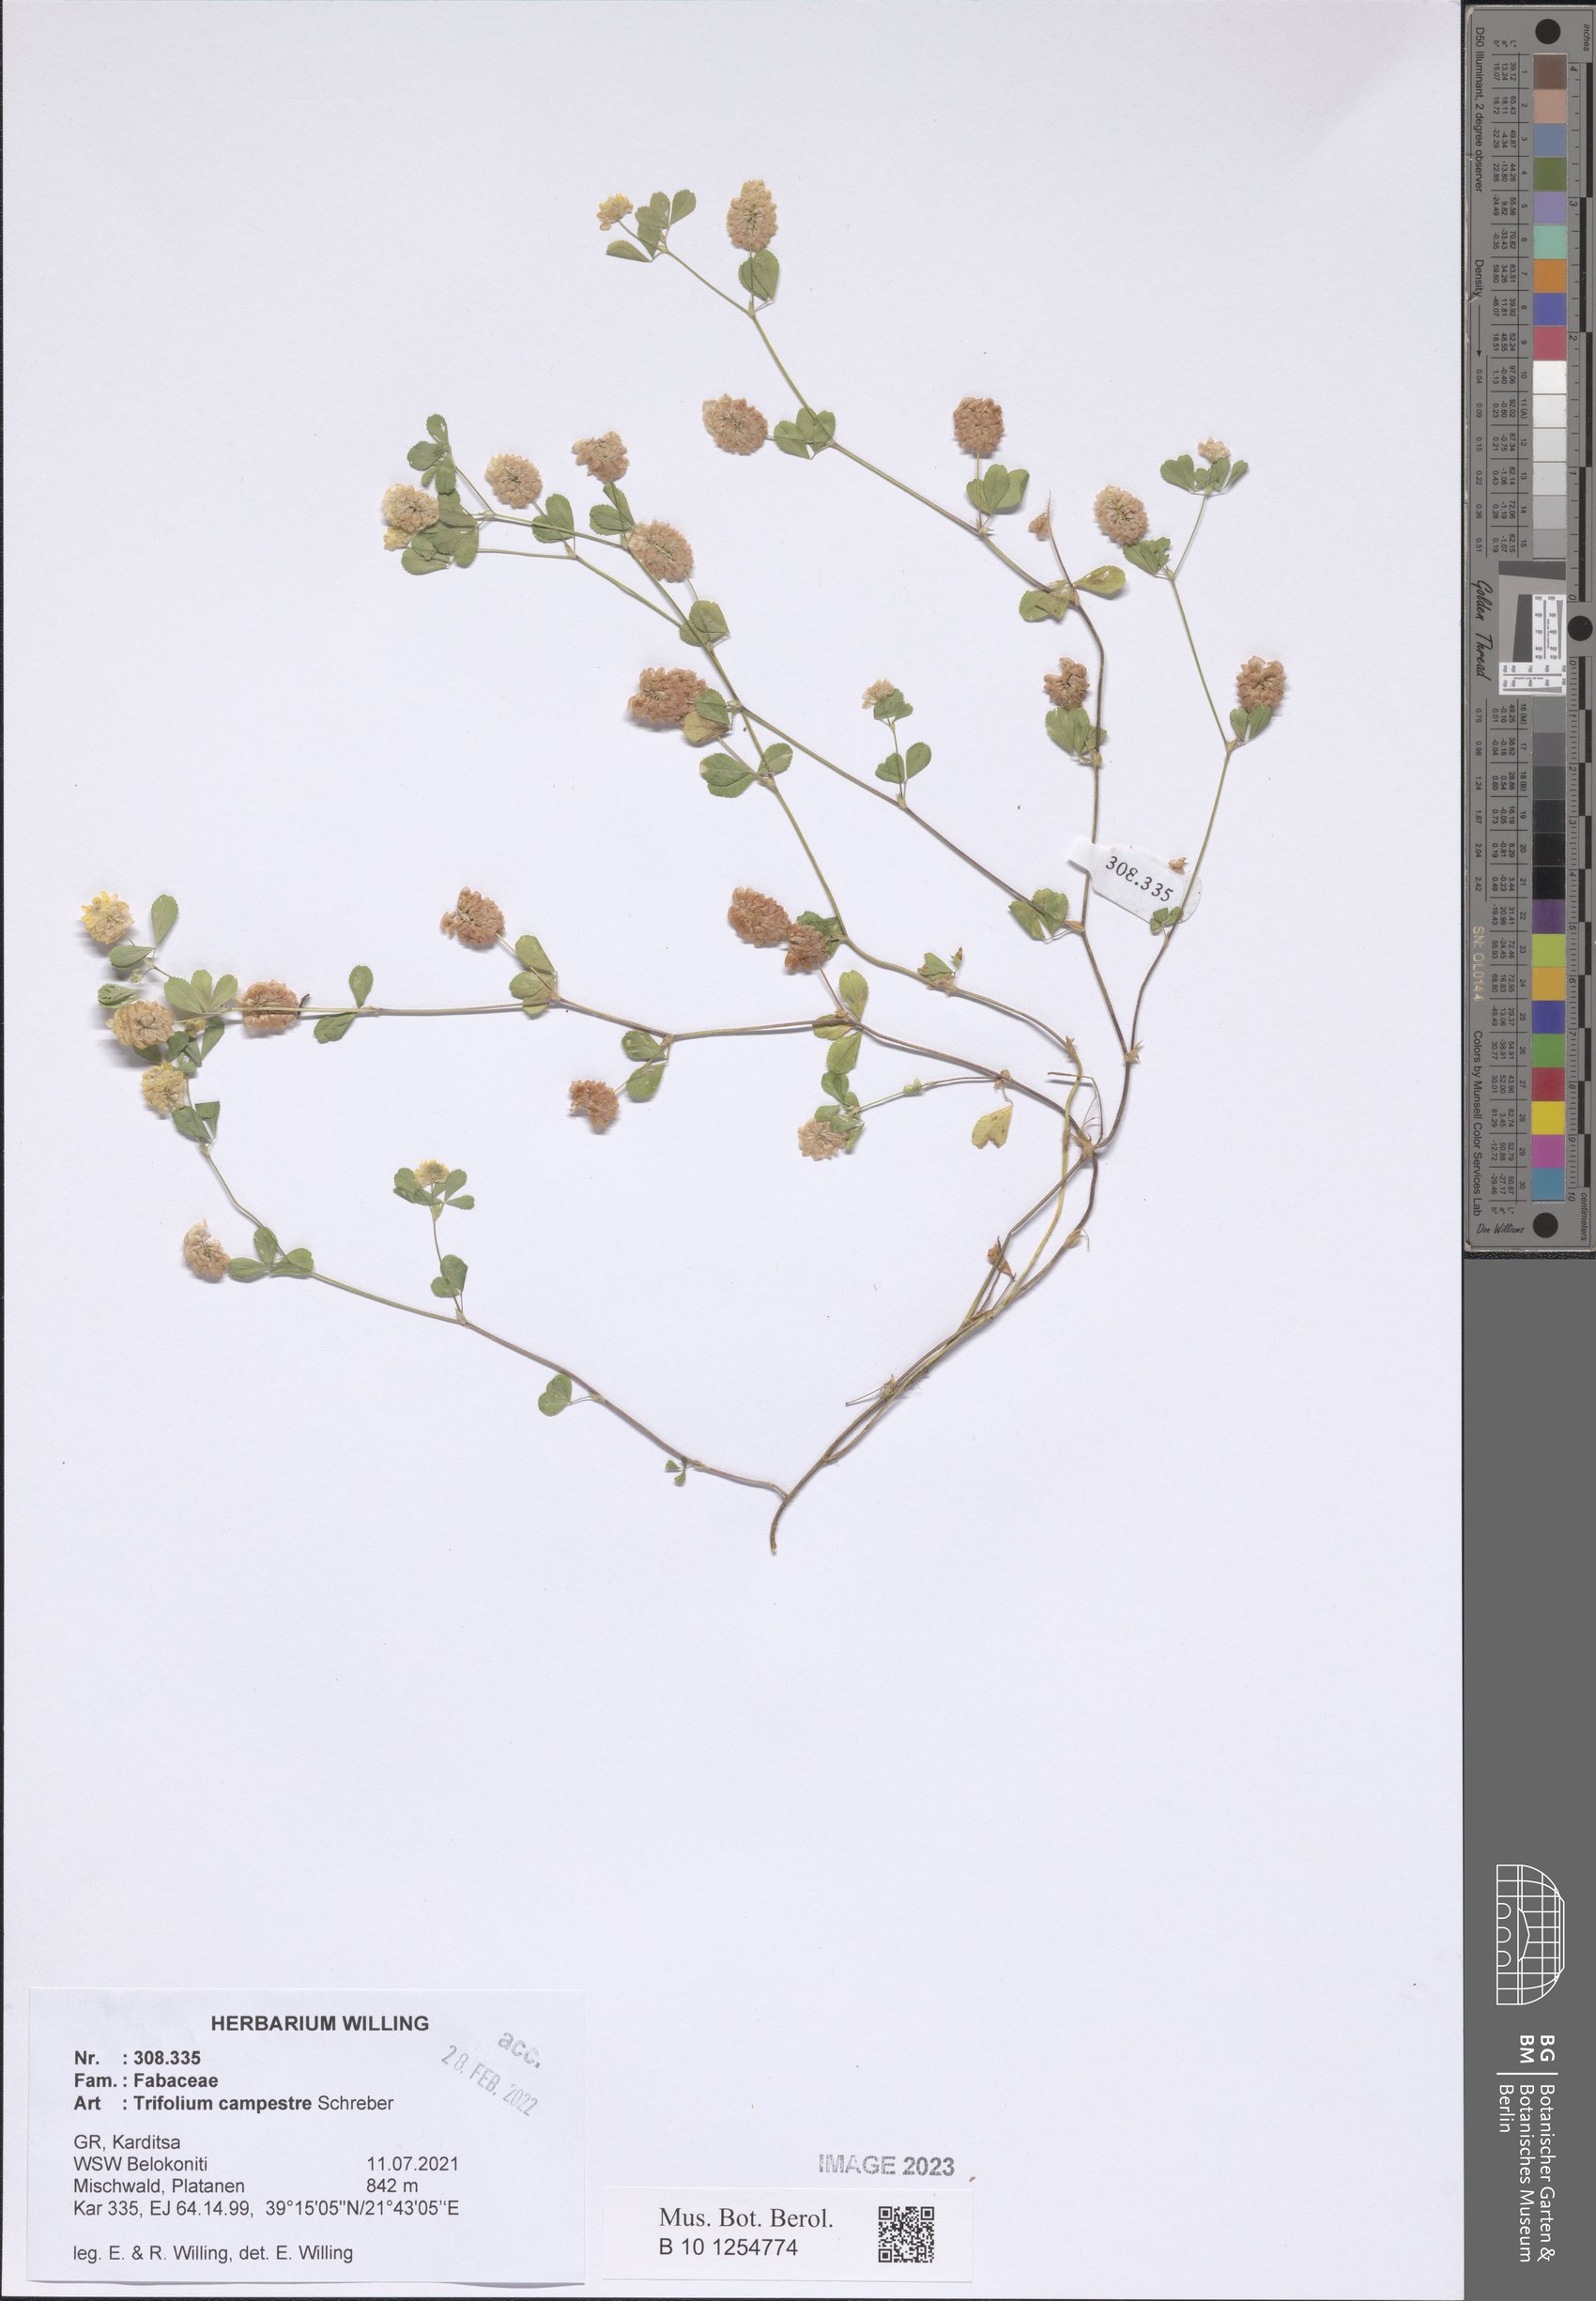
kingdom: Plantae
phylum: Tracheophyta
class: Magnoliopsida
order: Fabales
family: Fabaceae
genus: Trifolium
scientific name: Trifolium campestre
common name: Field clover
